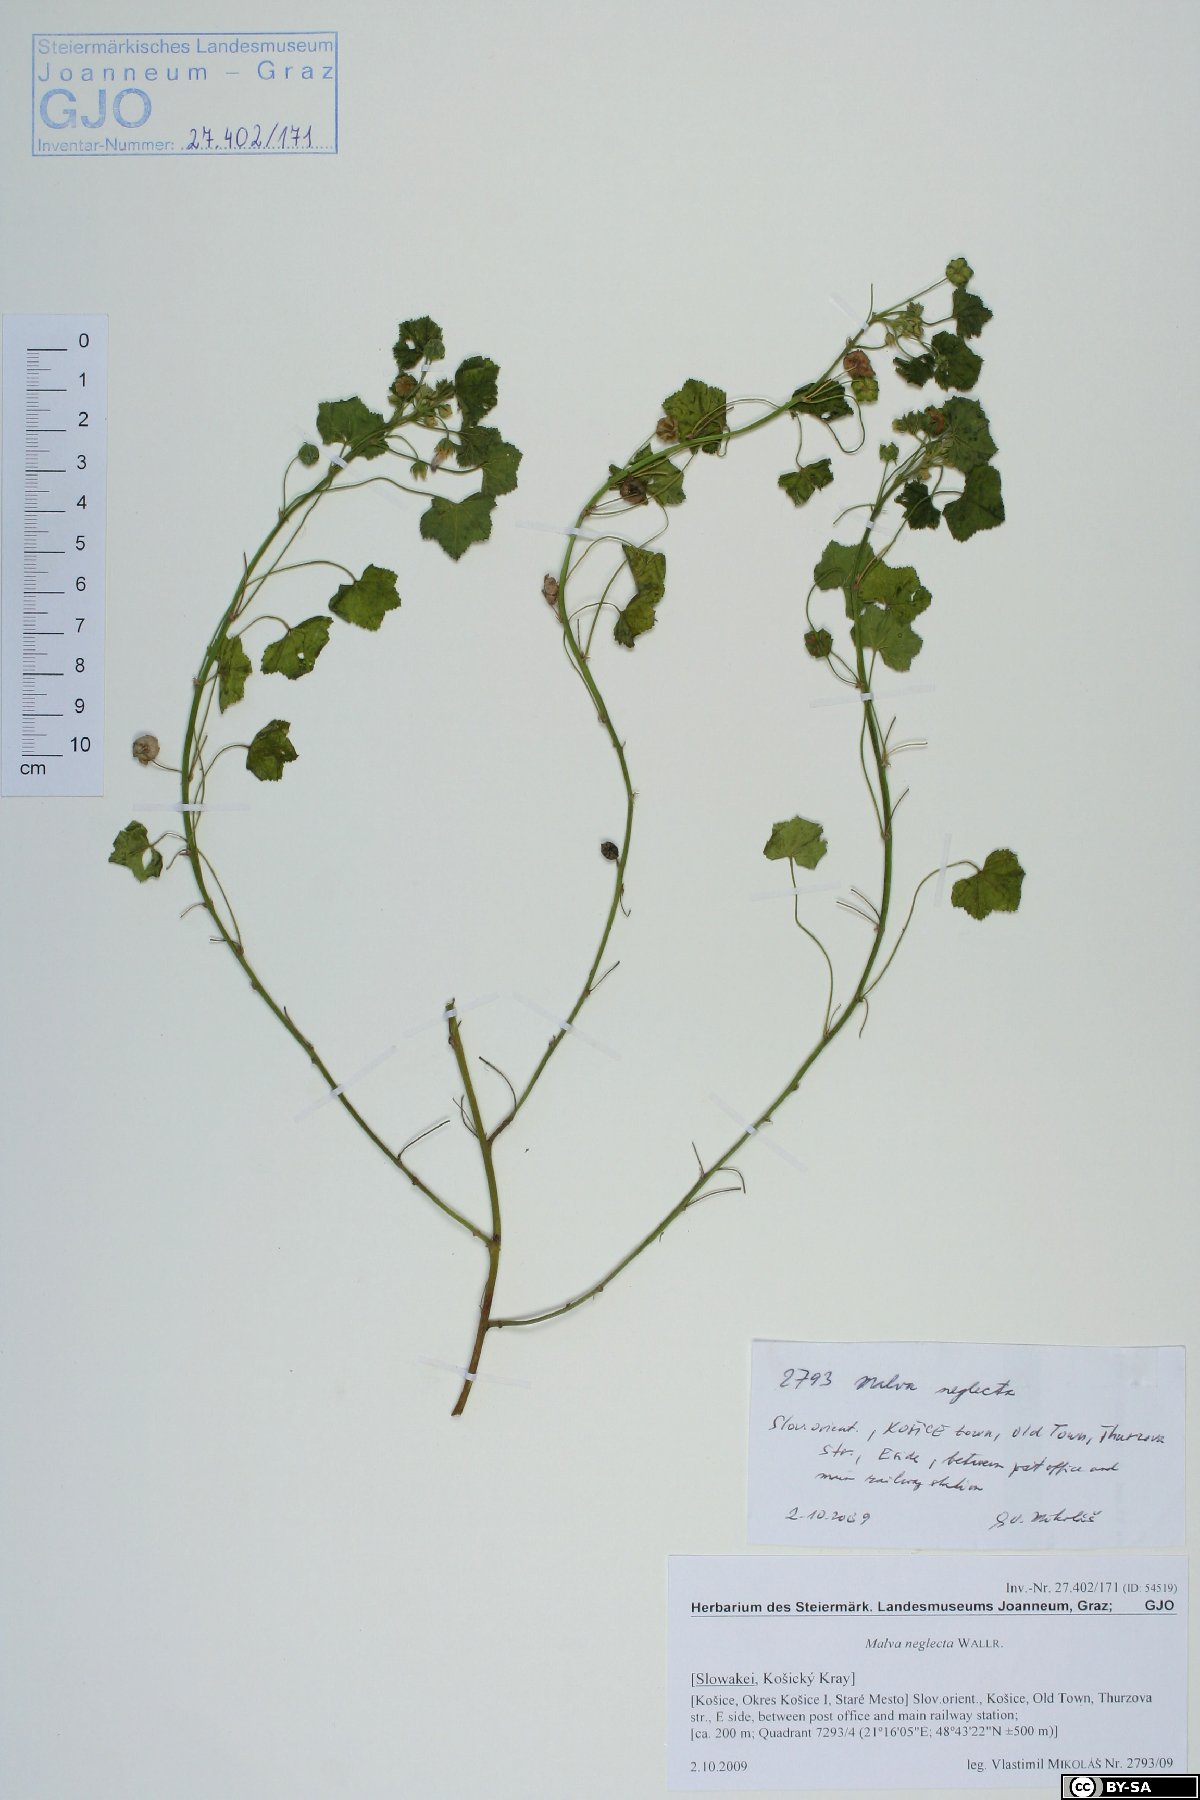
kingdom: Plantae
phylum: Tracheophyta
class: Magnoliopsida
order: Malvales
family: Malvaceae
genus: Malva
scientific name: Malva neglecta
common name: Common mallow
